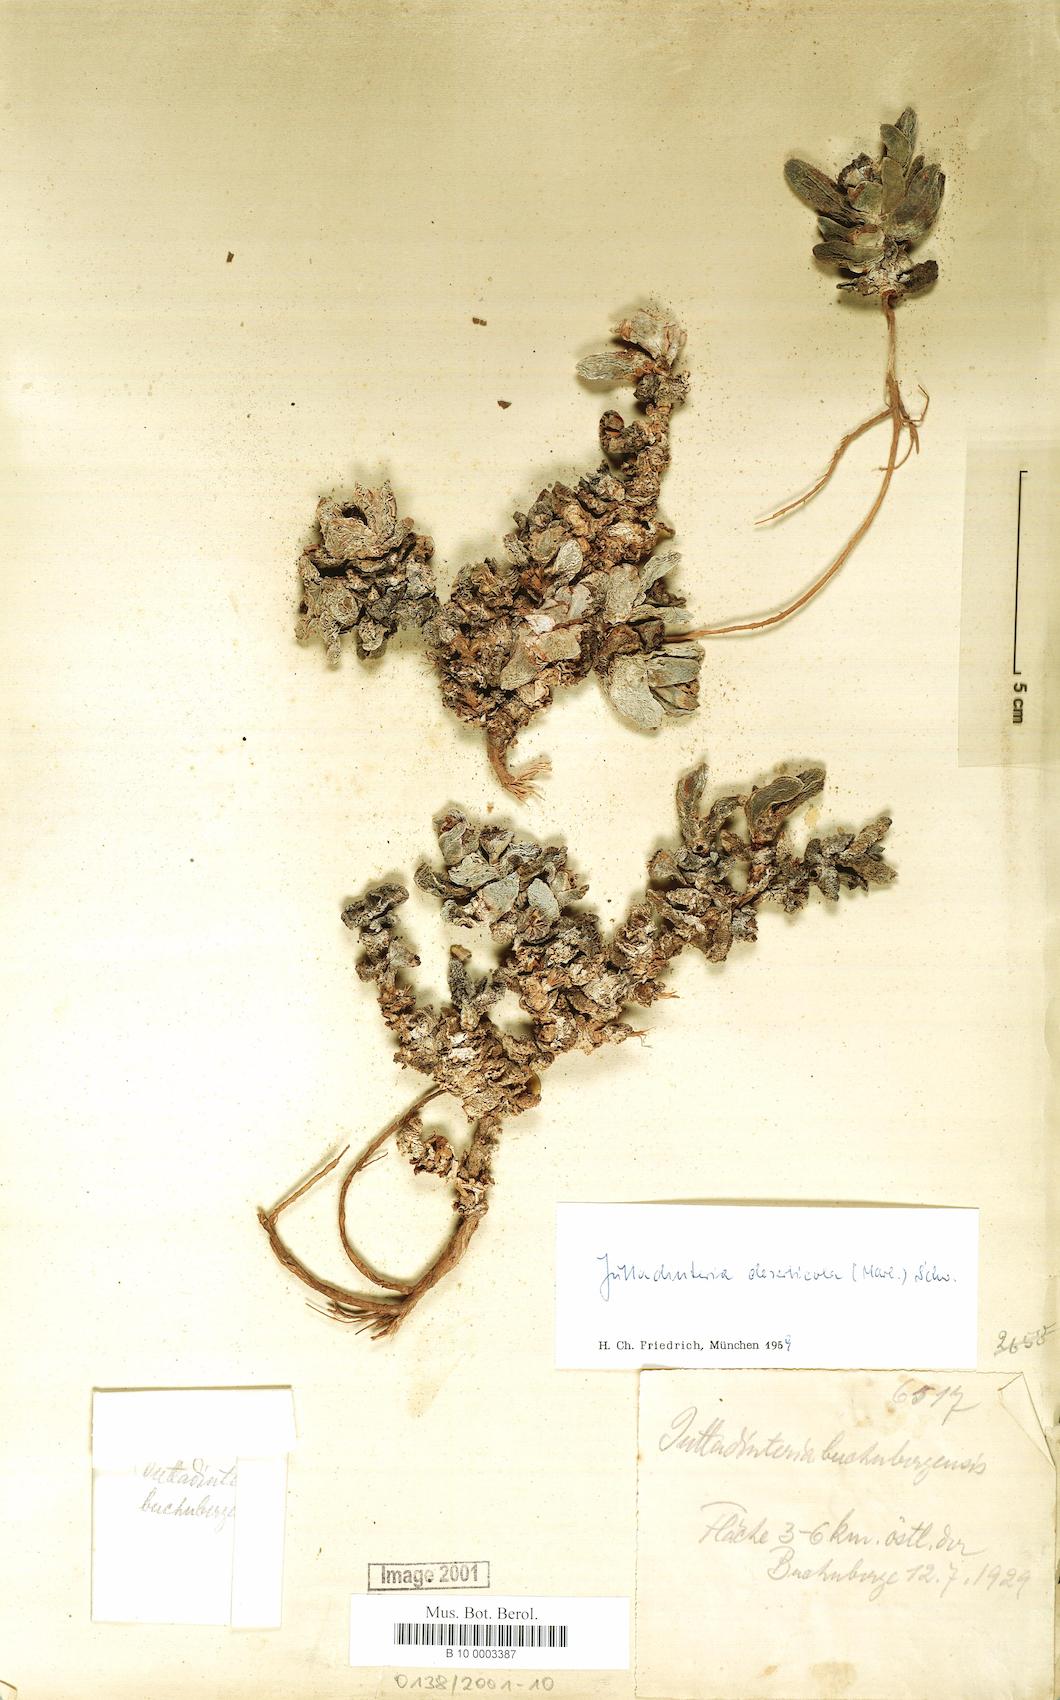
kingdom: Plantae
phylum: Tracheophyta
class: Magnoliopsida
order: Caryophyllales
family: Aizoaceae
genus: Juttadinteria
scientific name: Juttadinteria deserticola
